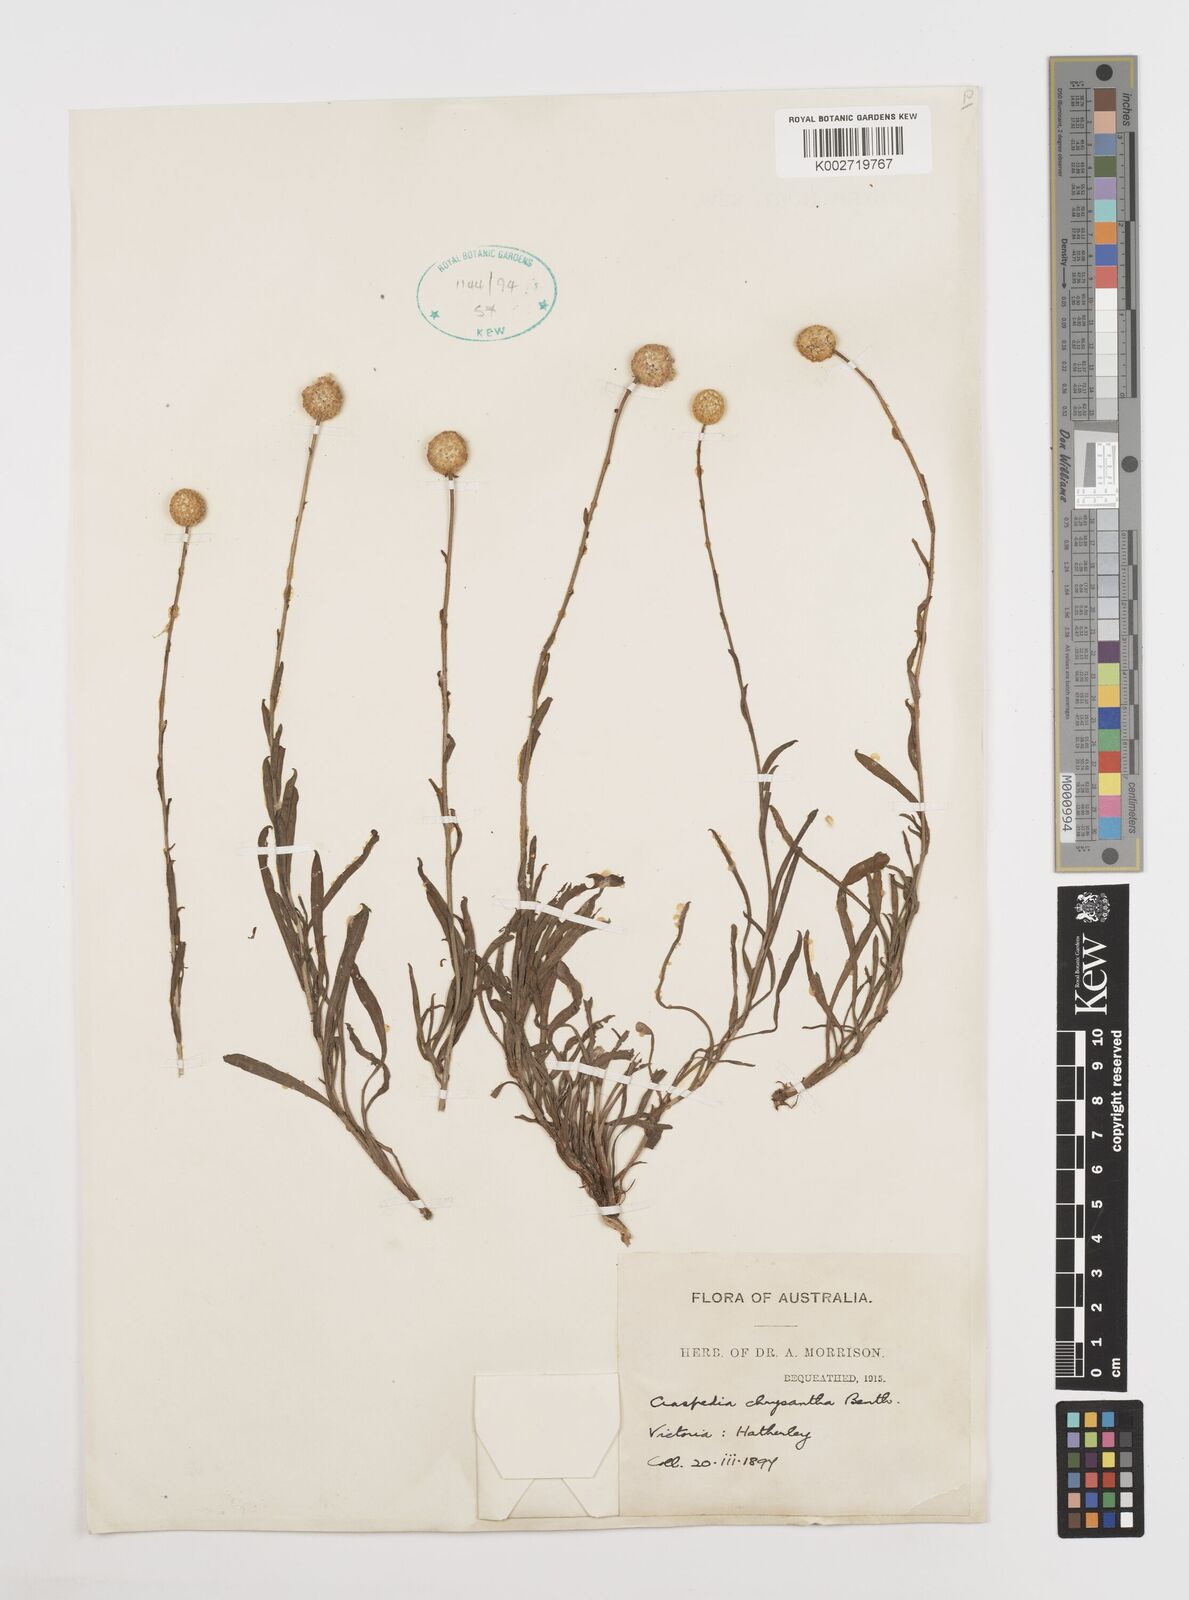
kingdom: Plantae
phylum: Tracheophyta
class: Magnoliopsida
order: Asterales
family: Asteraceae
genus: Pycnosorus
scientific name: Pycnosorus chrysanthus
